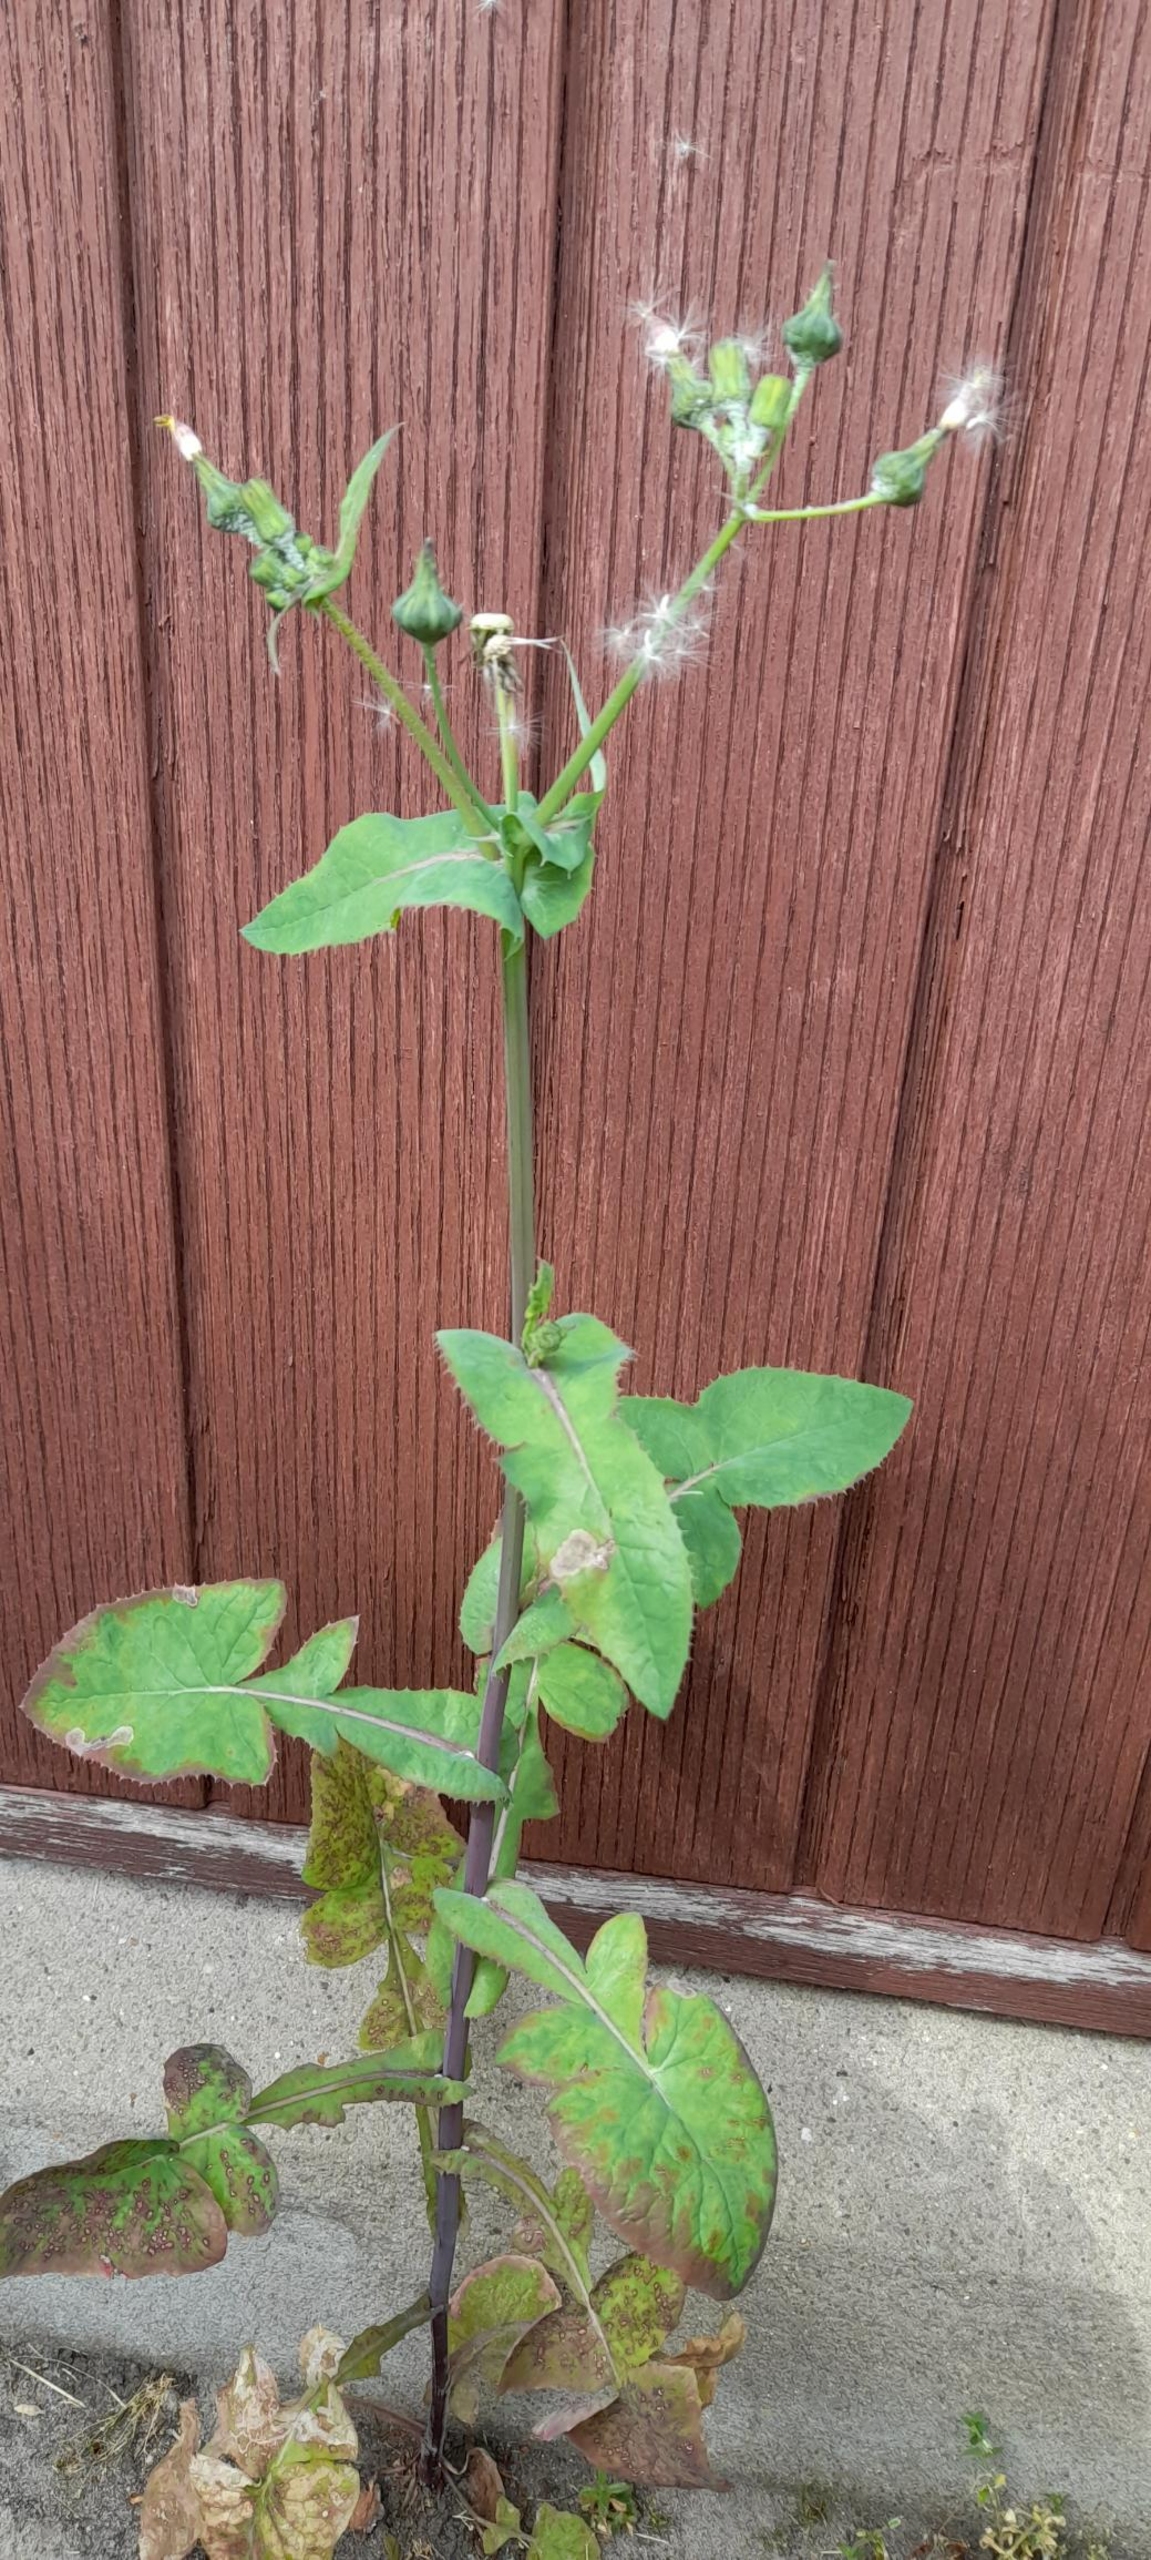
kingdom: Plantae
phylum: Tracheophyta
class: Magnoliopsida
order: Asterales
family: Asteraceae
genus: Sonchus
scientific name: Sonchus oleraceus
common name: Almindelig svinemælk
